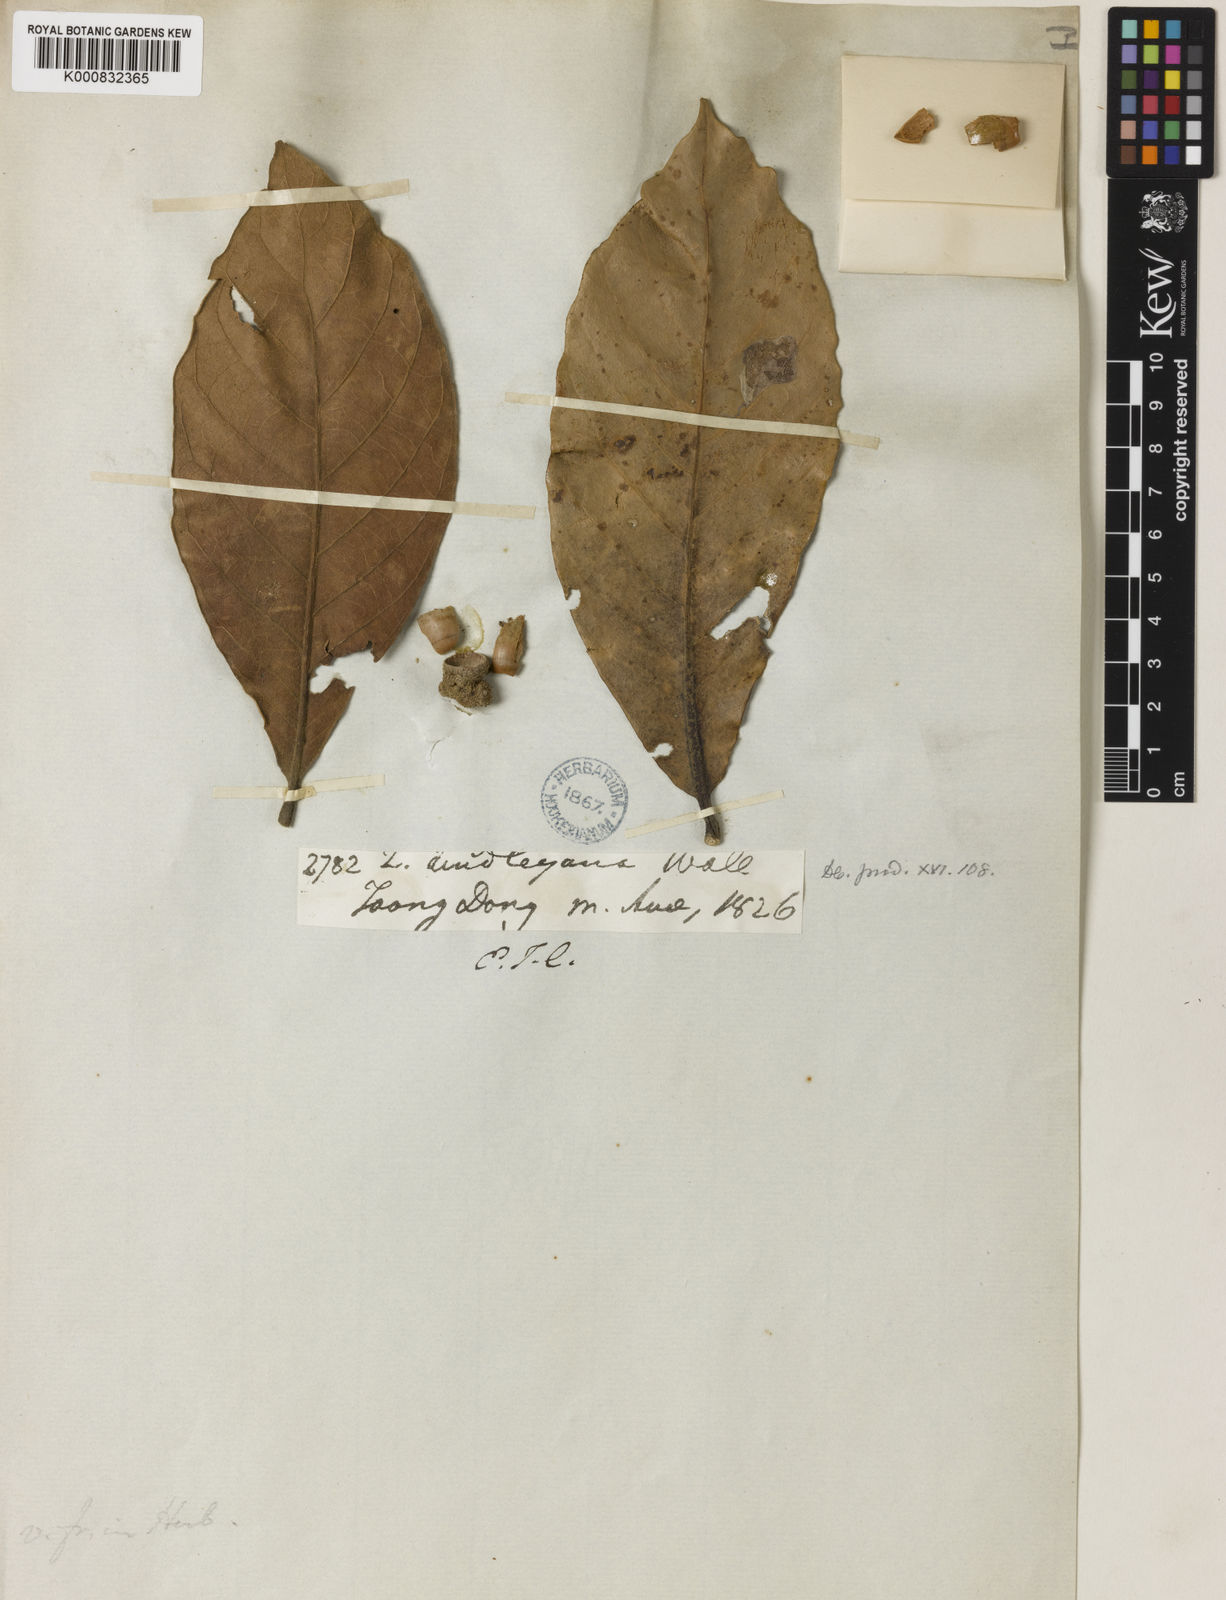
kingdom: Plantae
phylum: Tracheophyta
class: Magnoliopsida
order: Fagales
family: Fagaceae
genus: Lithocarpus
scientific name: Lithocarpus lindleyanus
